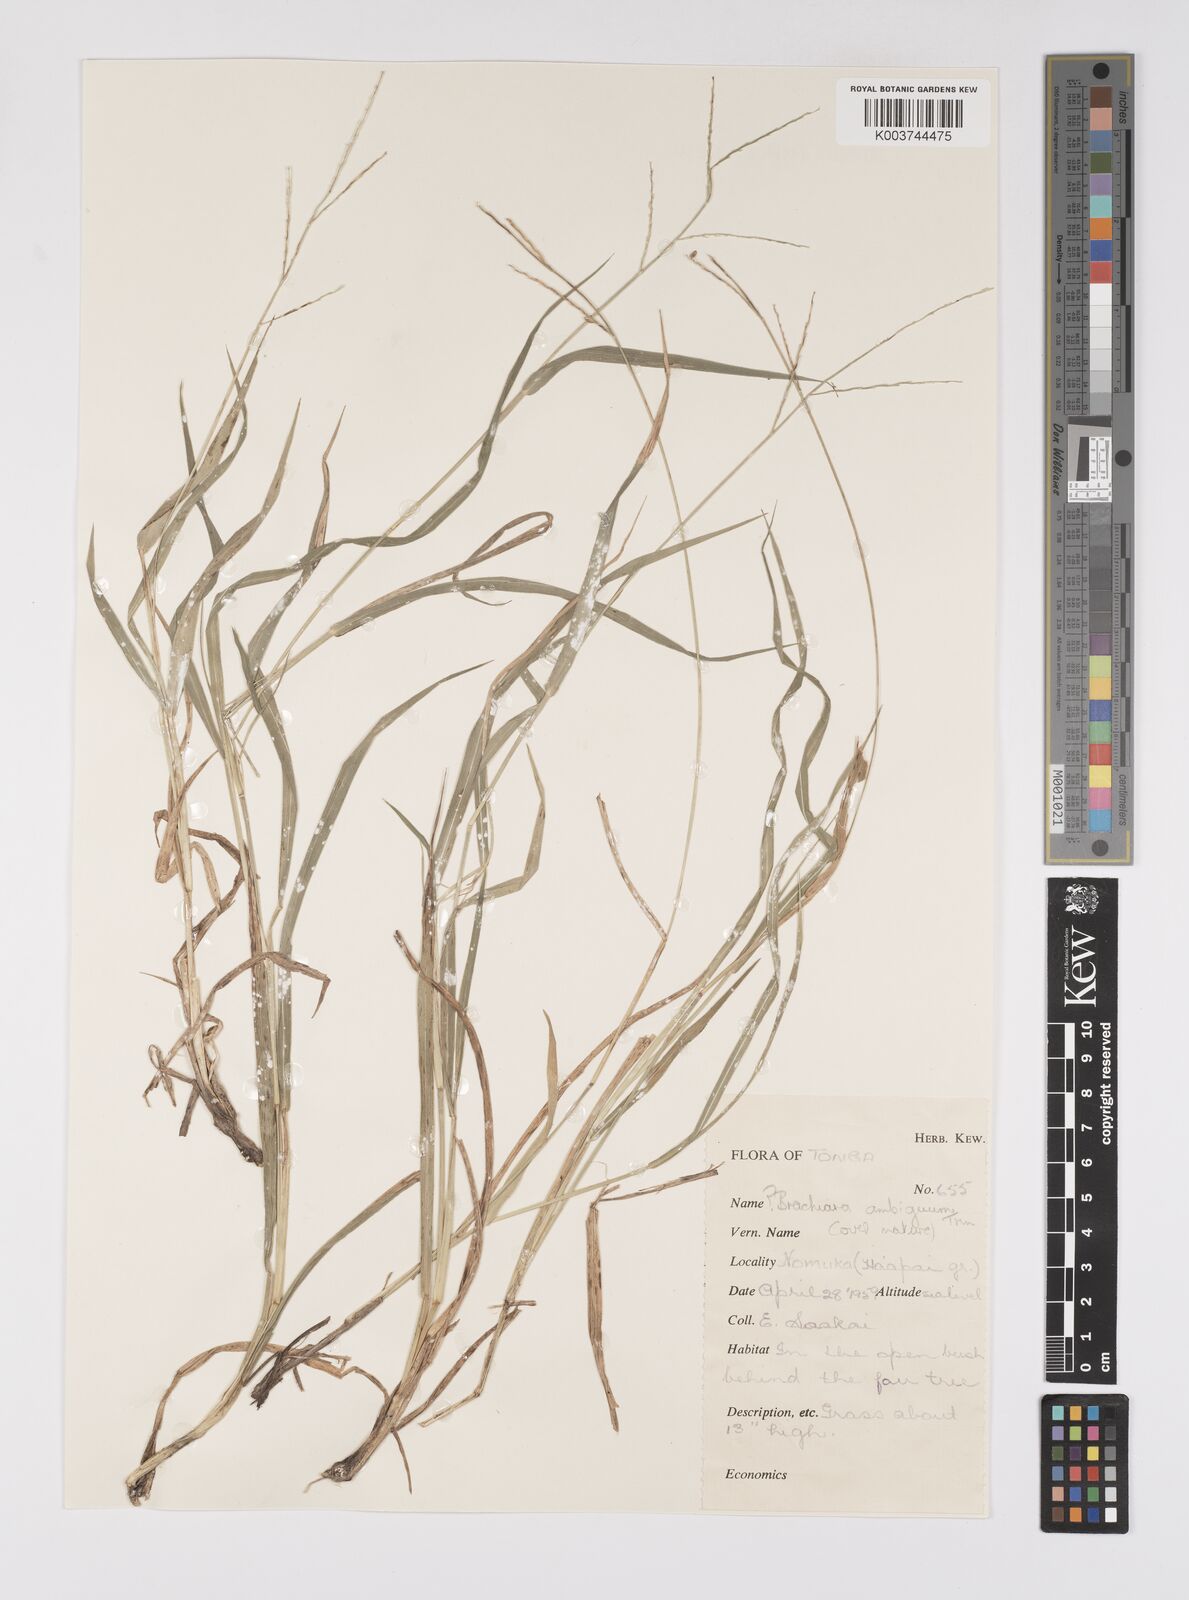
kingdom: Plantae
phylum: Tracheophyta
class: Liliopsida
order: Poales
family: Poaceae
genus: Urochloa
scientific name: Urochloa glumaris
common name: Thurston grass
